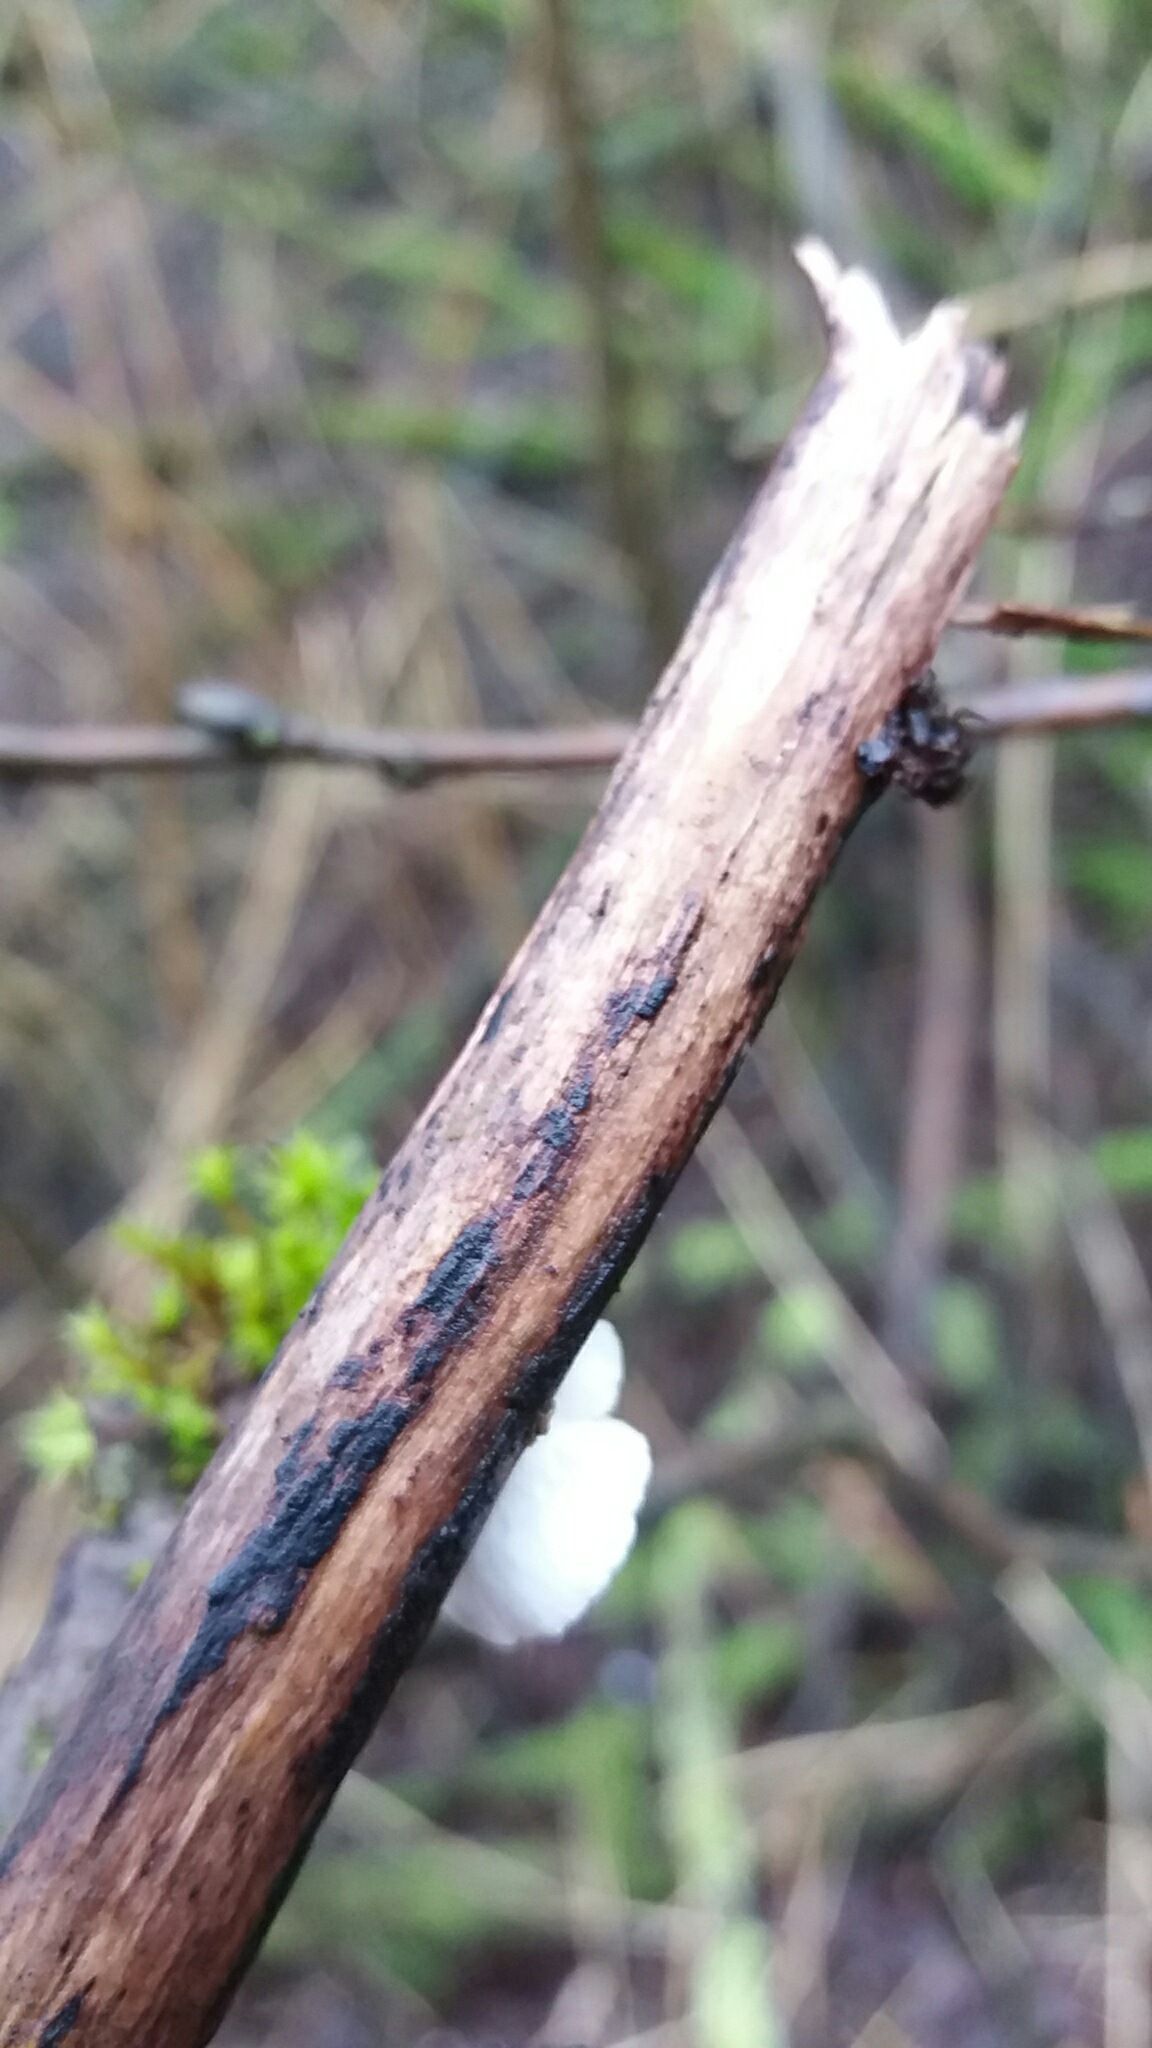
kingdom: Fungi
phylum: Basidiomycota
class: Agaricomycetes
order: Agaricales
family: Crepidotaceae
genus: Crepidotus
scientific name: Crepidotus
